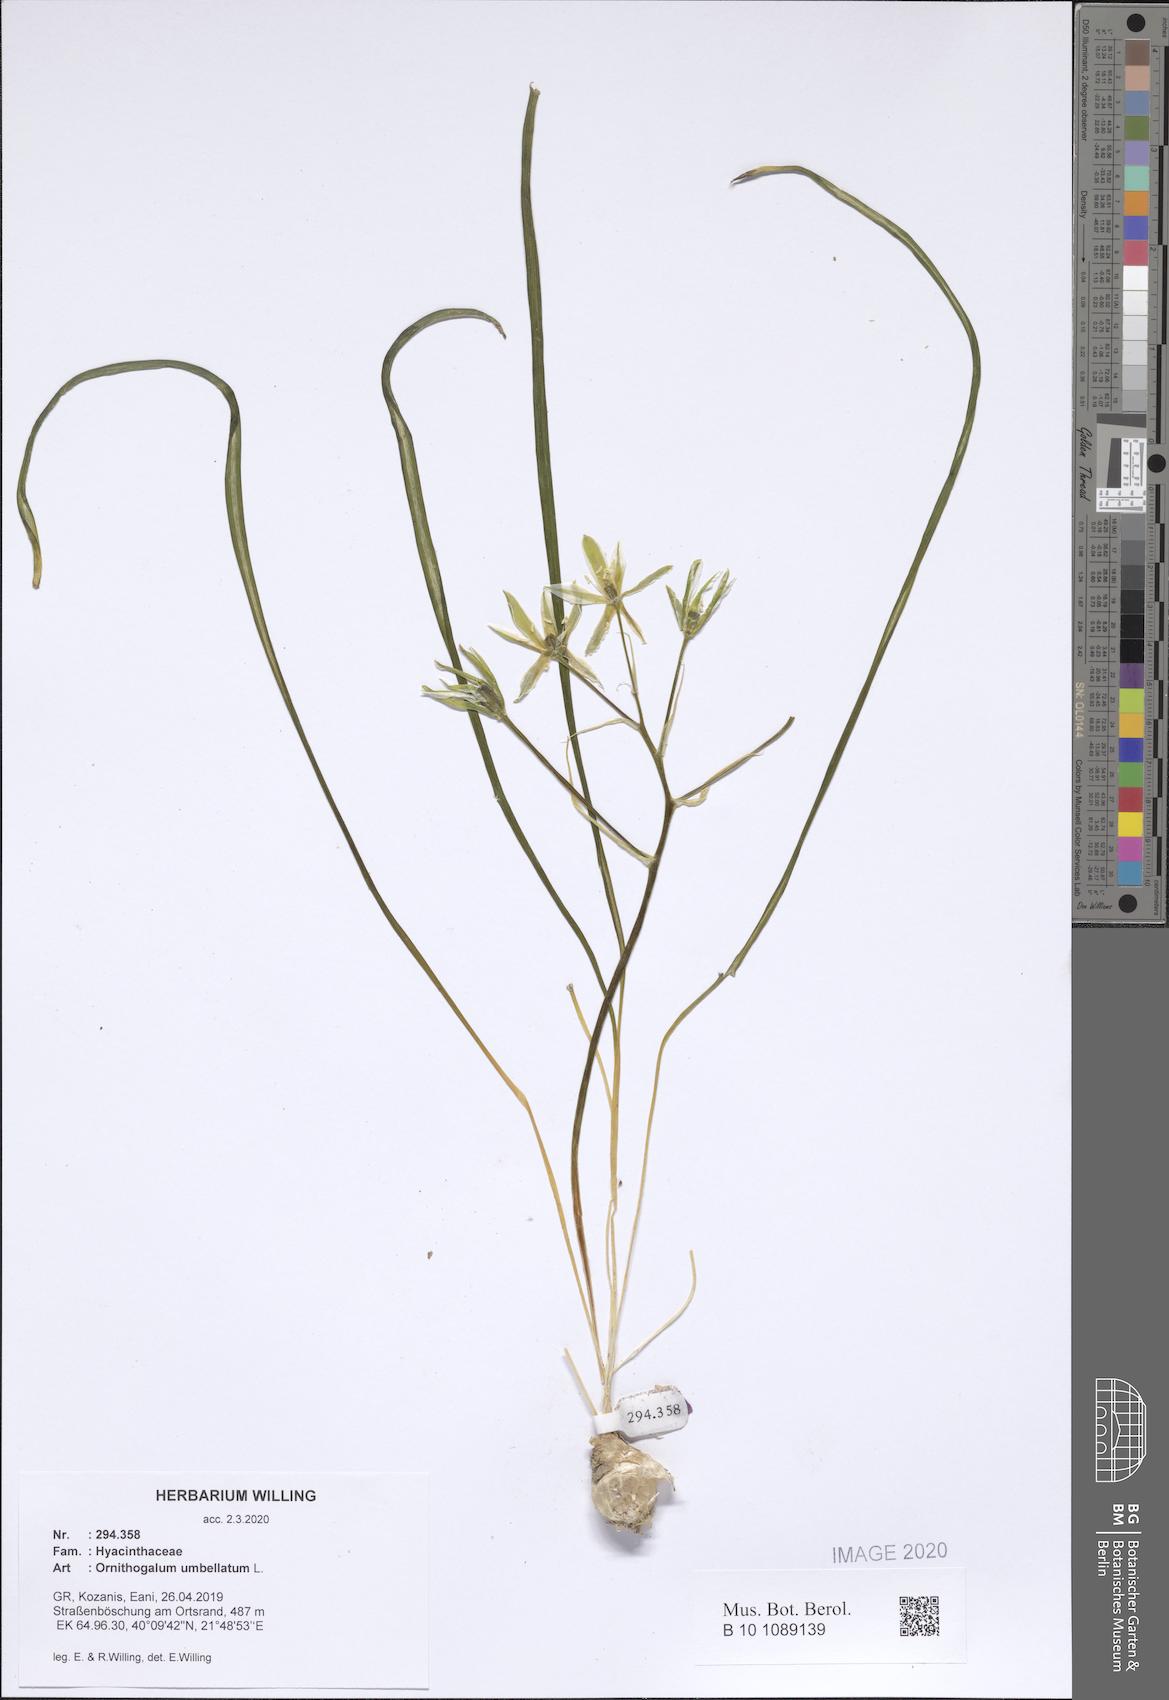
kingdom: Plantae
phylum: Tracheophyta
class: Liliopsida
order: Asparagales
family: Asparagaceae
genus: Ornithogalum
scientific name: Ornithogalum umbellatum
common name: Garden star-of-bethlehem
